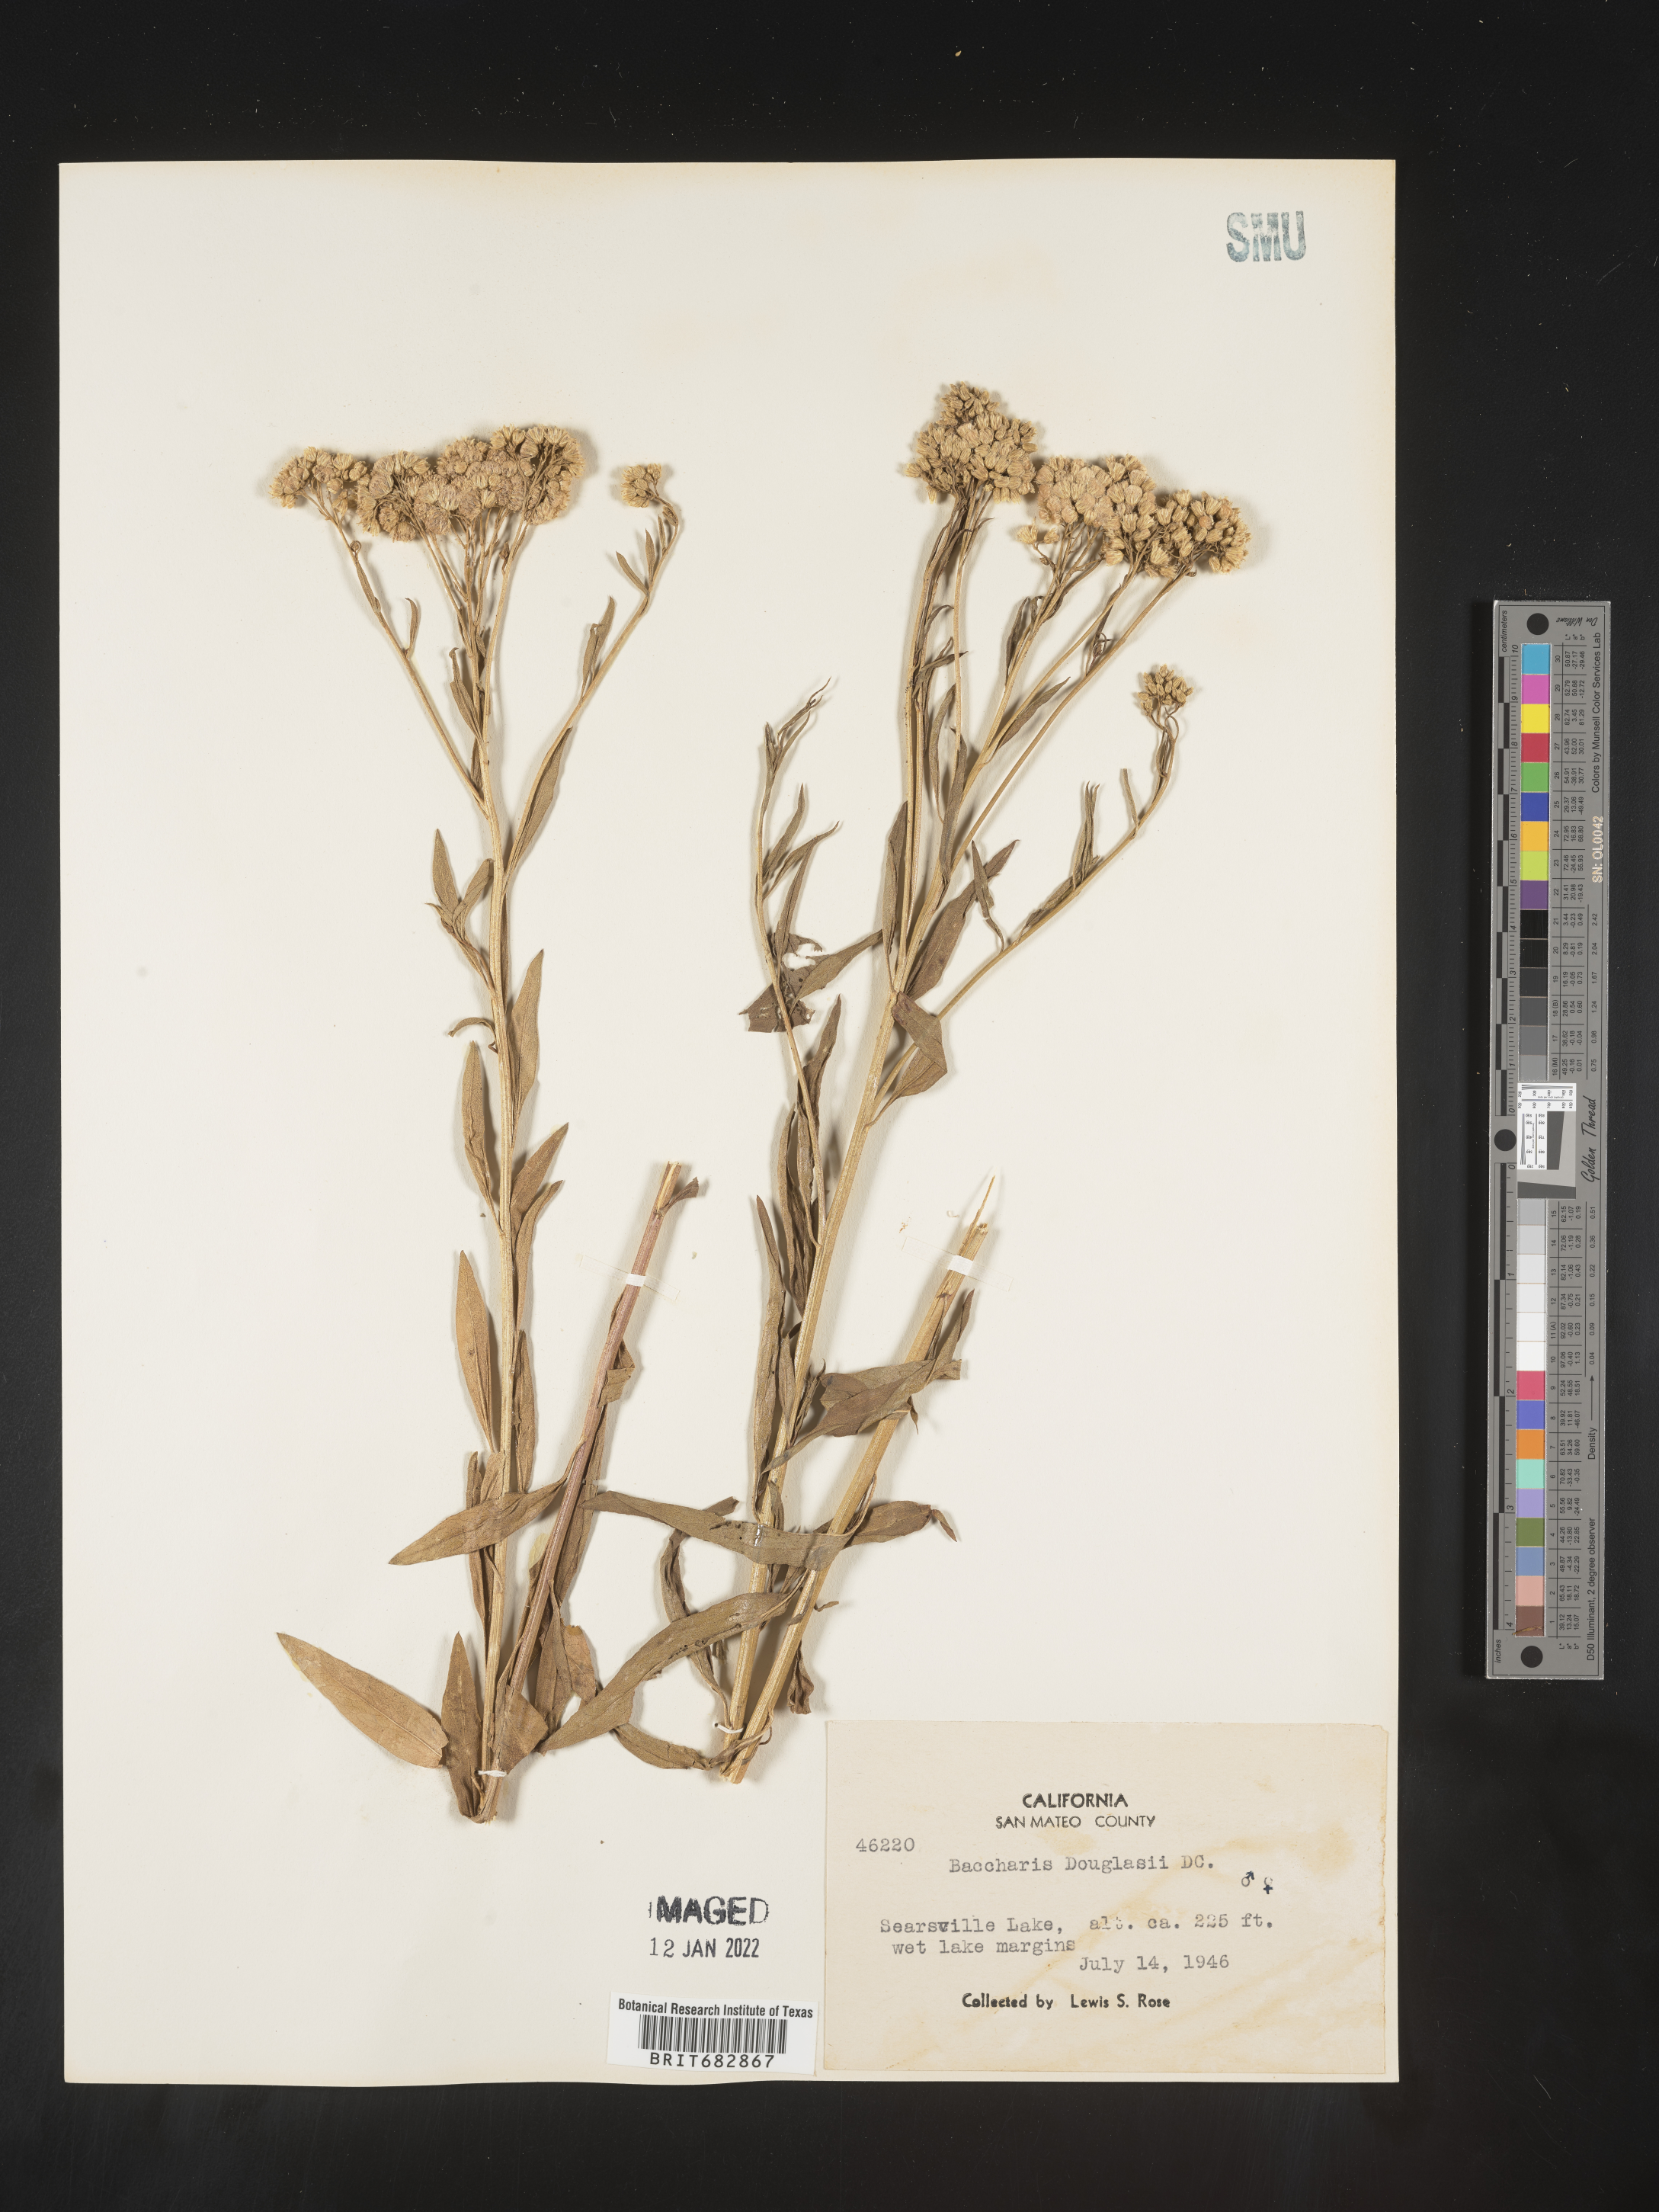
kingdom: Plantae
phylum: Tracheophyta
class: Magnoliopsida
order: Asterales
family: Asteraceae
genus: Baccharis
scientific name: Baccharis douglasii
